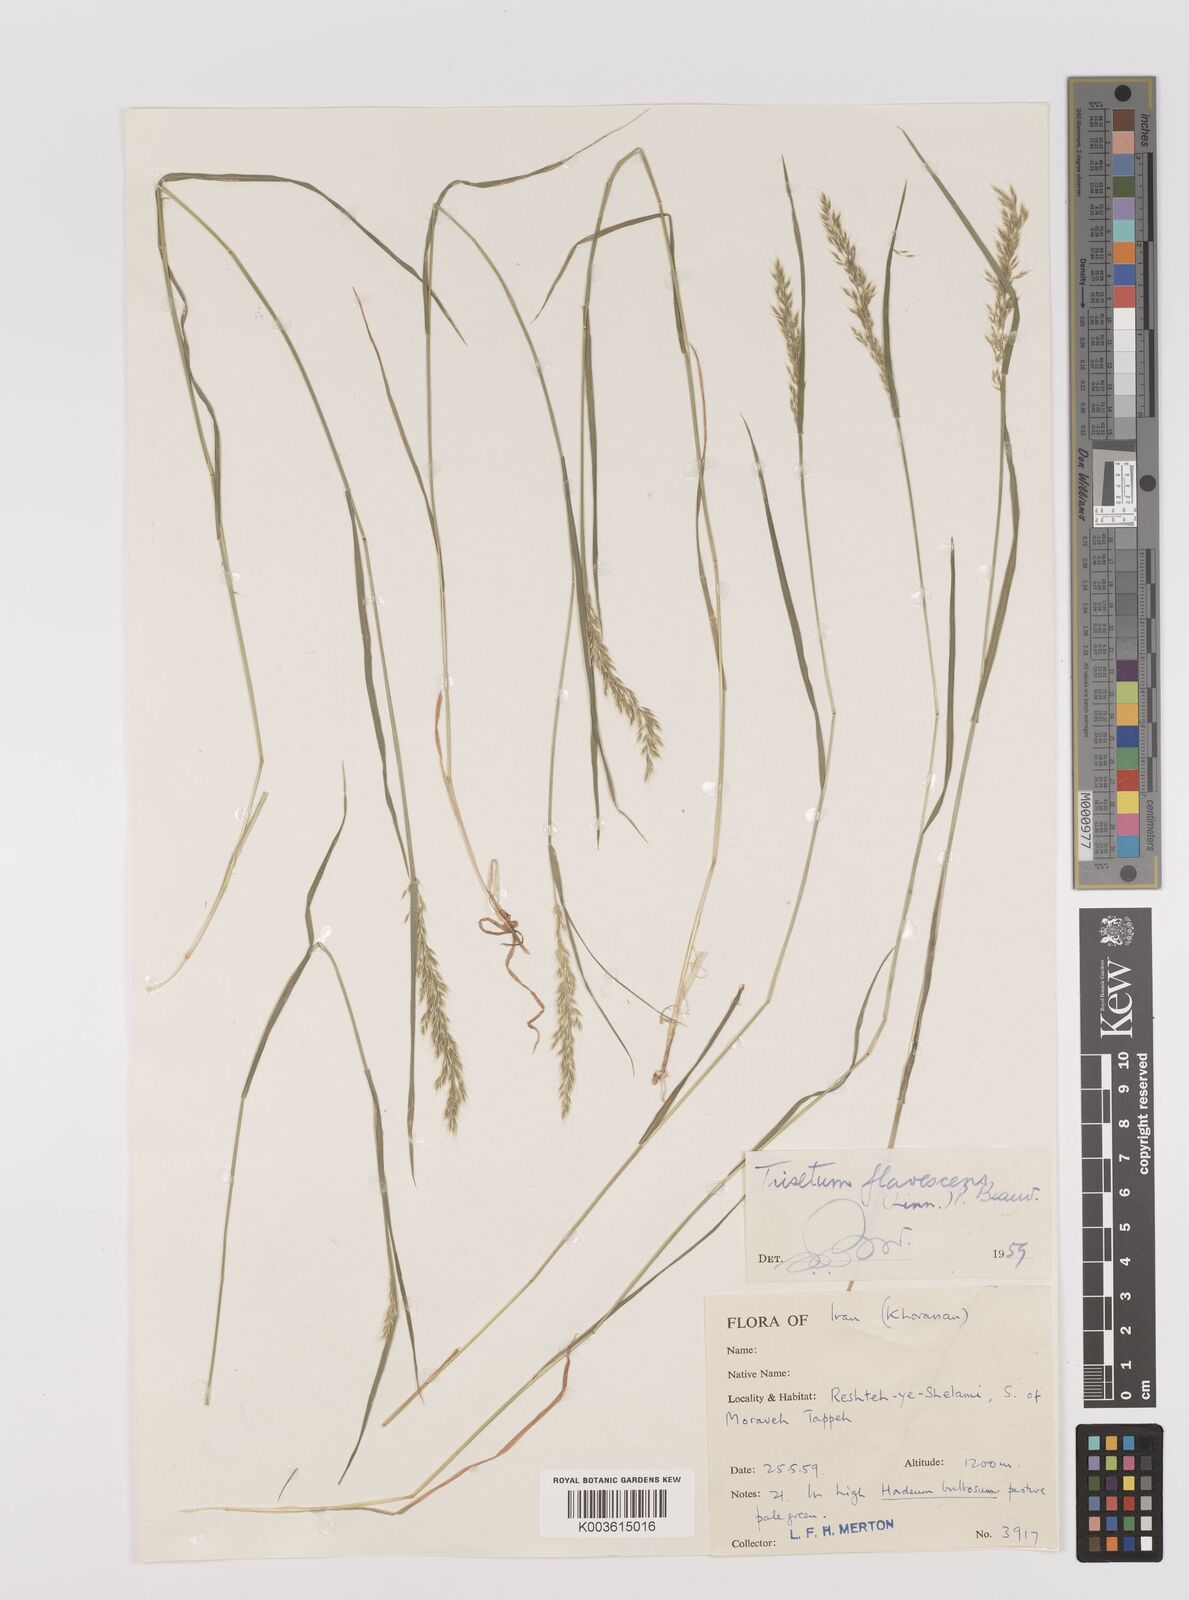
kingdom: Plantae
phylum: Tracheophyta
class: Liliopsida
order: Poales
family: Poaceae
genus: Trisetum
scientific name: Trisetum flavescens
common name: Yellow oat-grass
